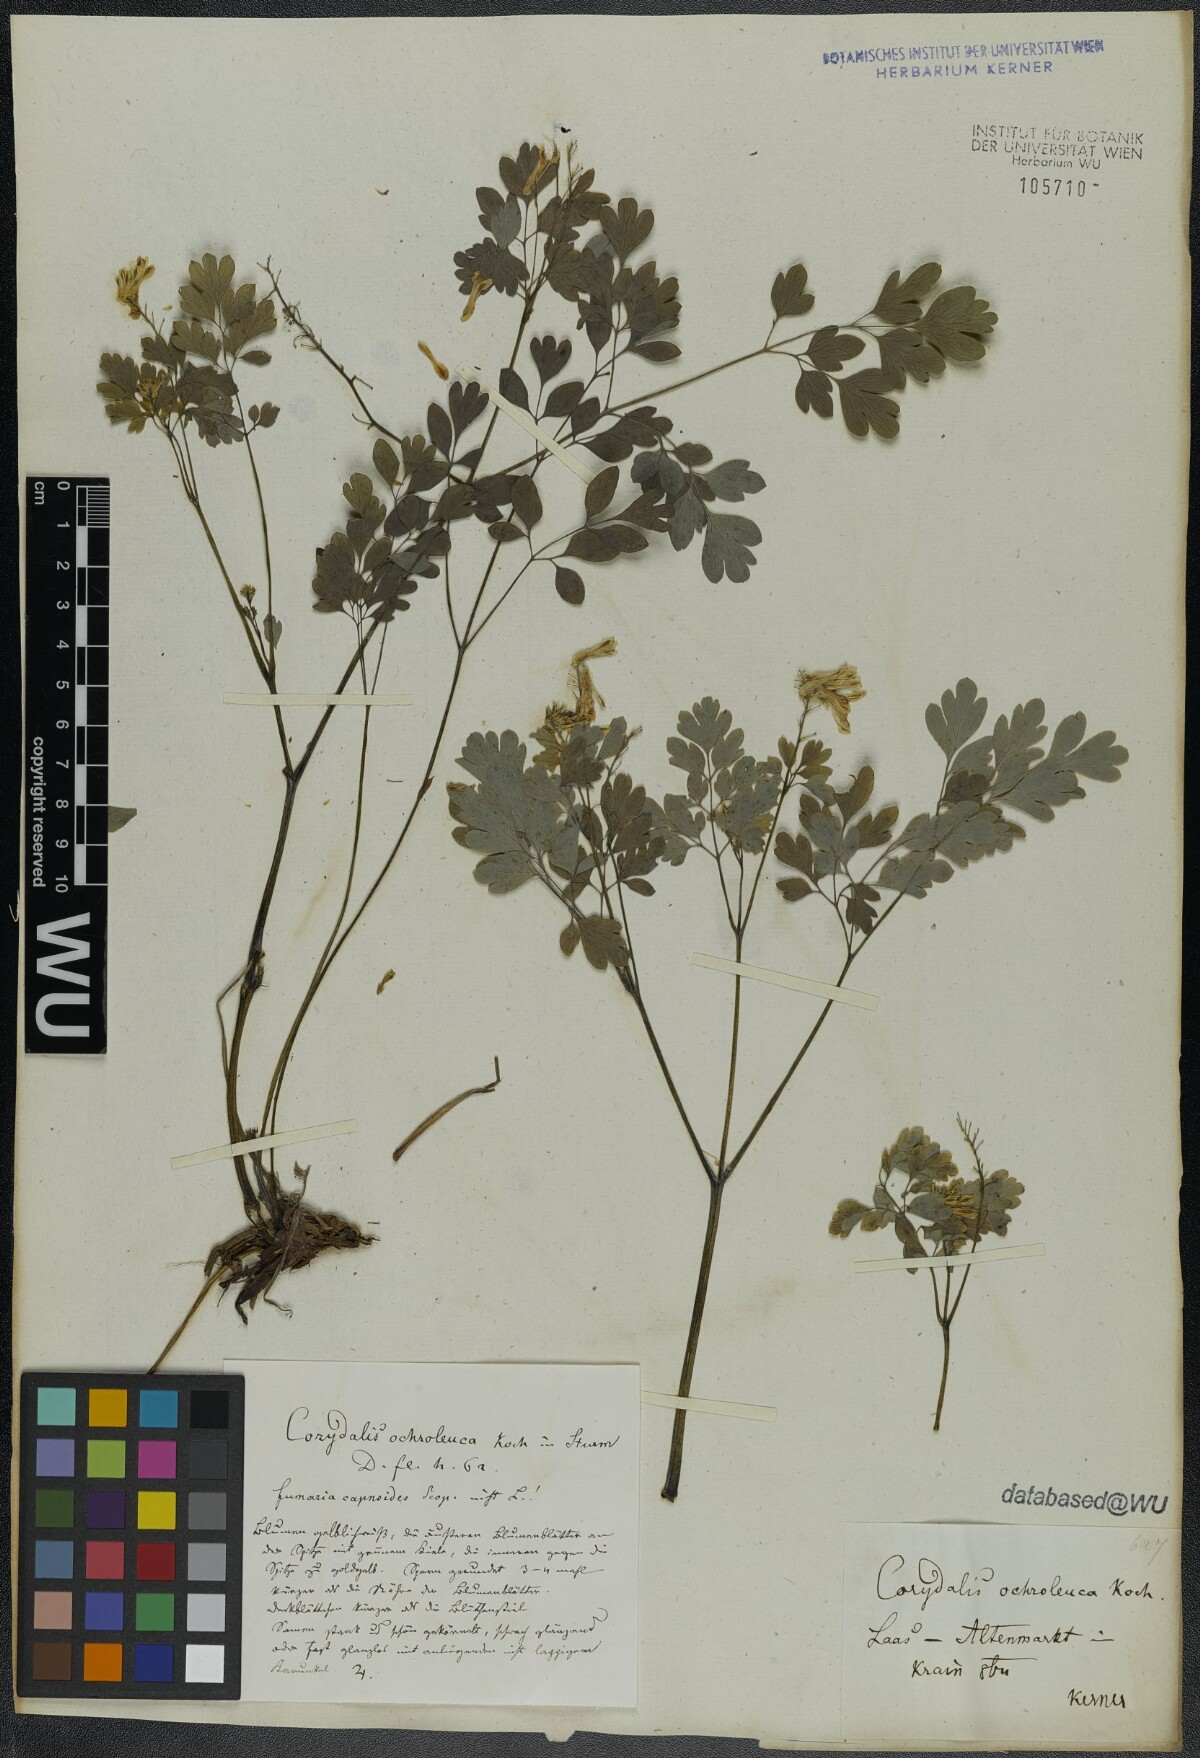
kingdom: Plantae
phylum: Tracheophyta
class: Magnoliopsida
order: Ranunculales
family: Papaveraceae
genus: Pseudofumaria
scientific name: Pseudofumaria alba
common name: Pale corydalis
